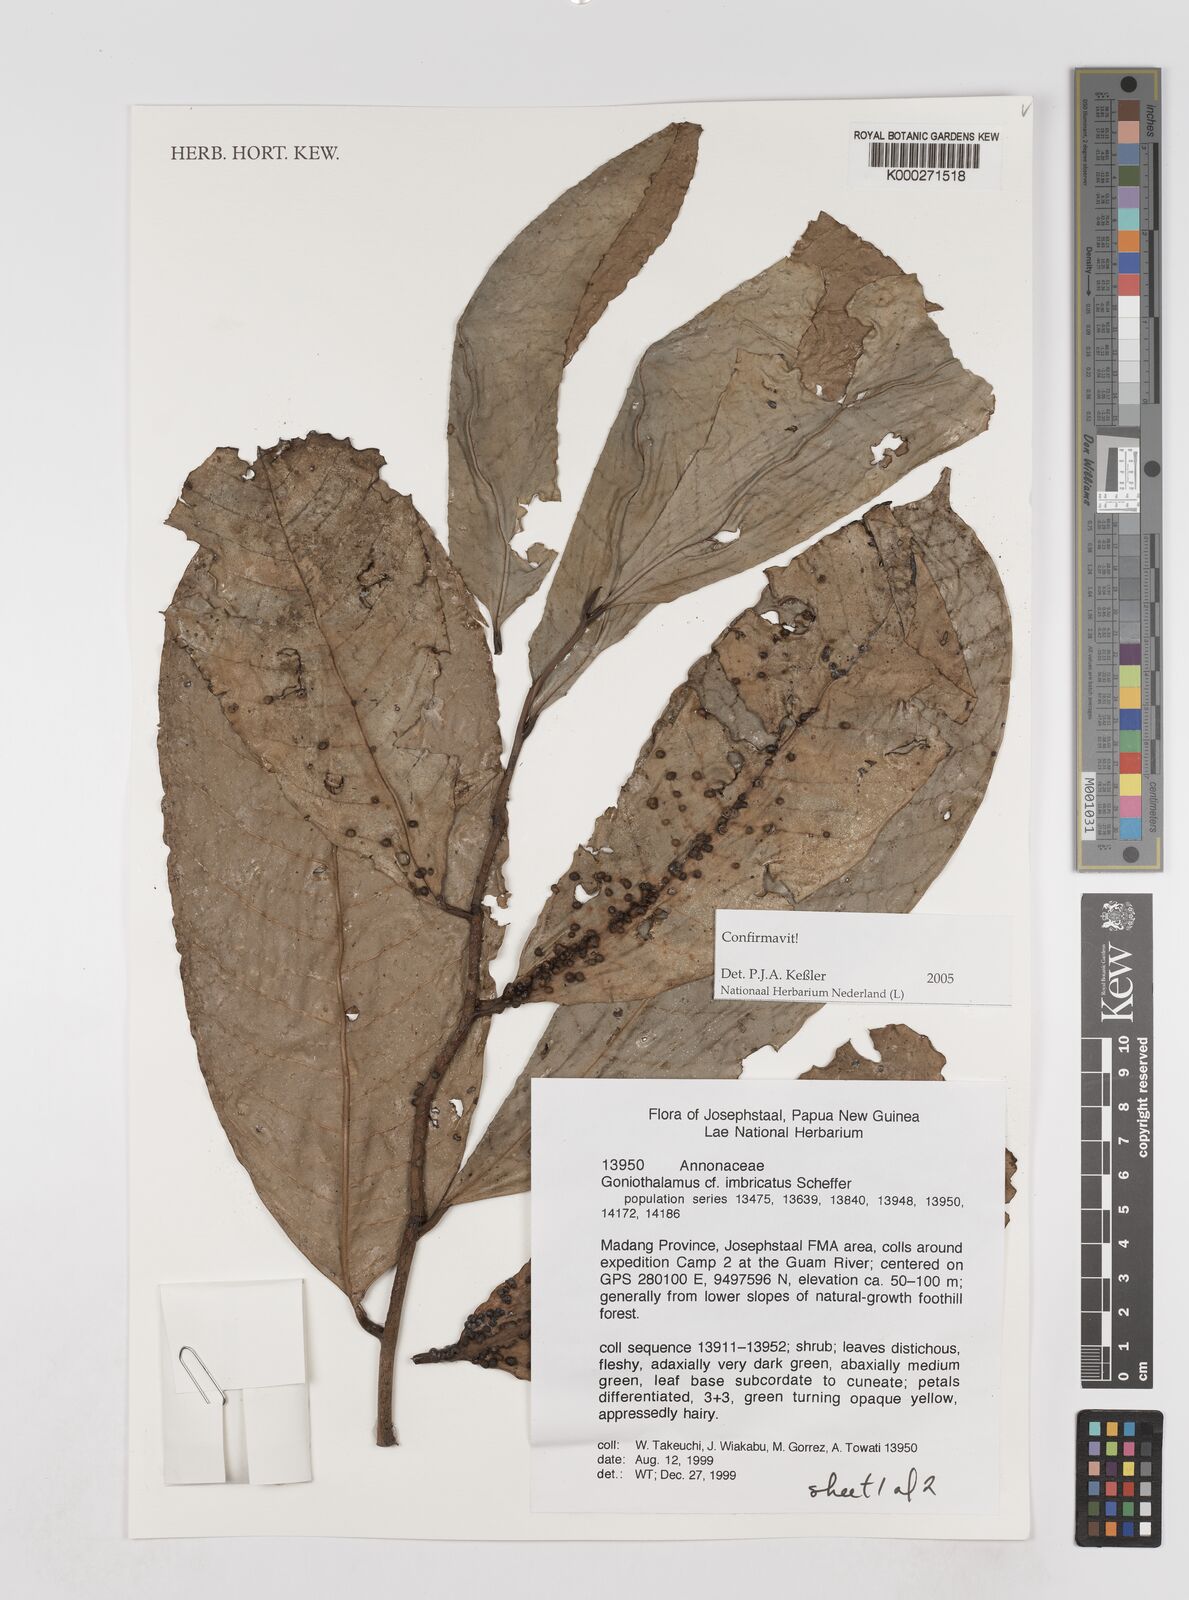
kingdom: Plantae
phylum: Tracheophyta
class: Magnoliopsida
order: Magnoliales
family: Annonaceae
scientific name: Annonaceae
